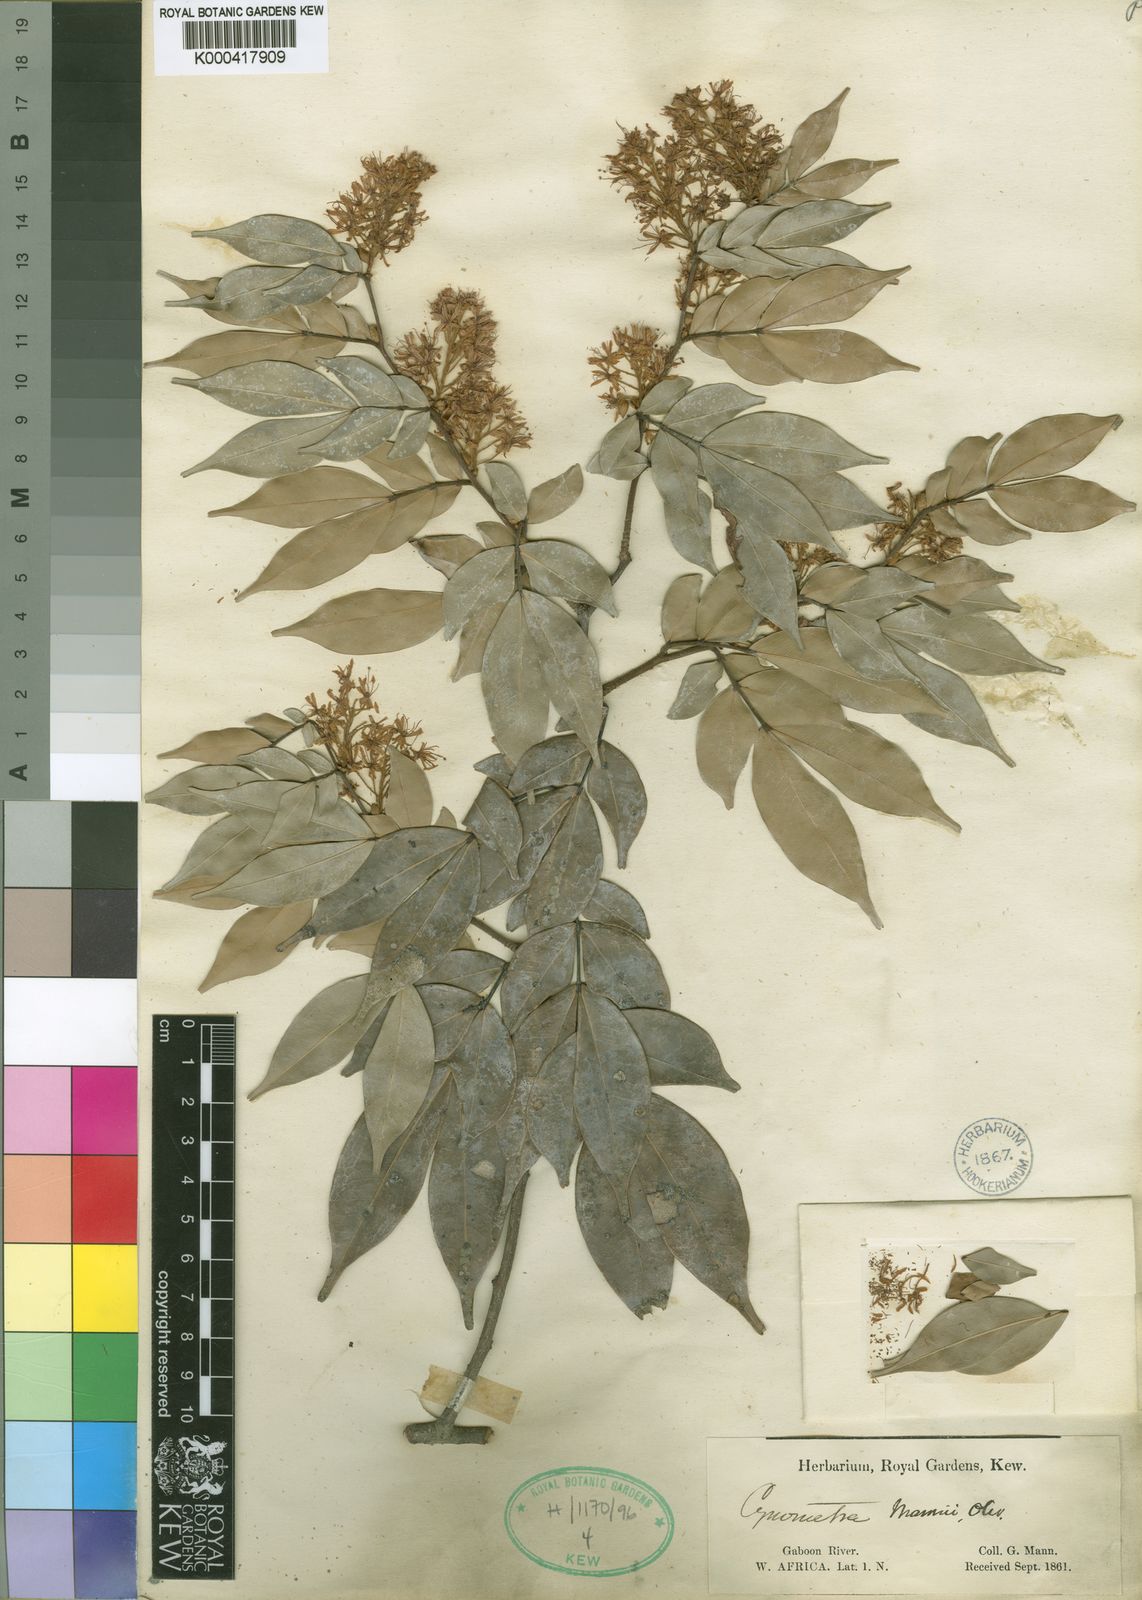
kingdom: Plantae
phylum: Tracheophyta
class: Magnoliopsida
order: Fabales
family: Fabaceae
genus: Cynometra
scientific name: Cynometra mannii
